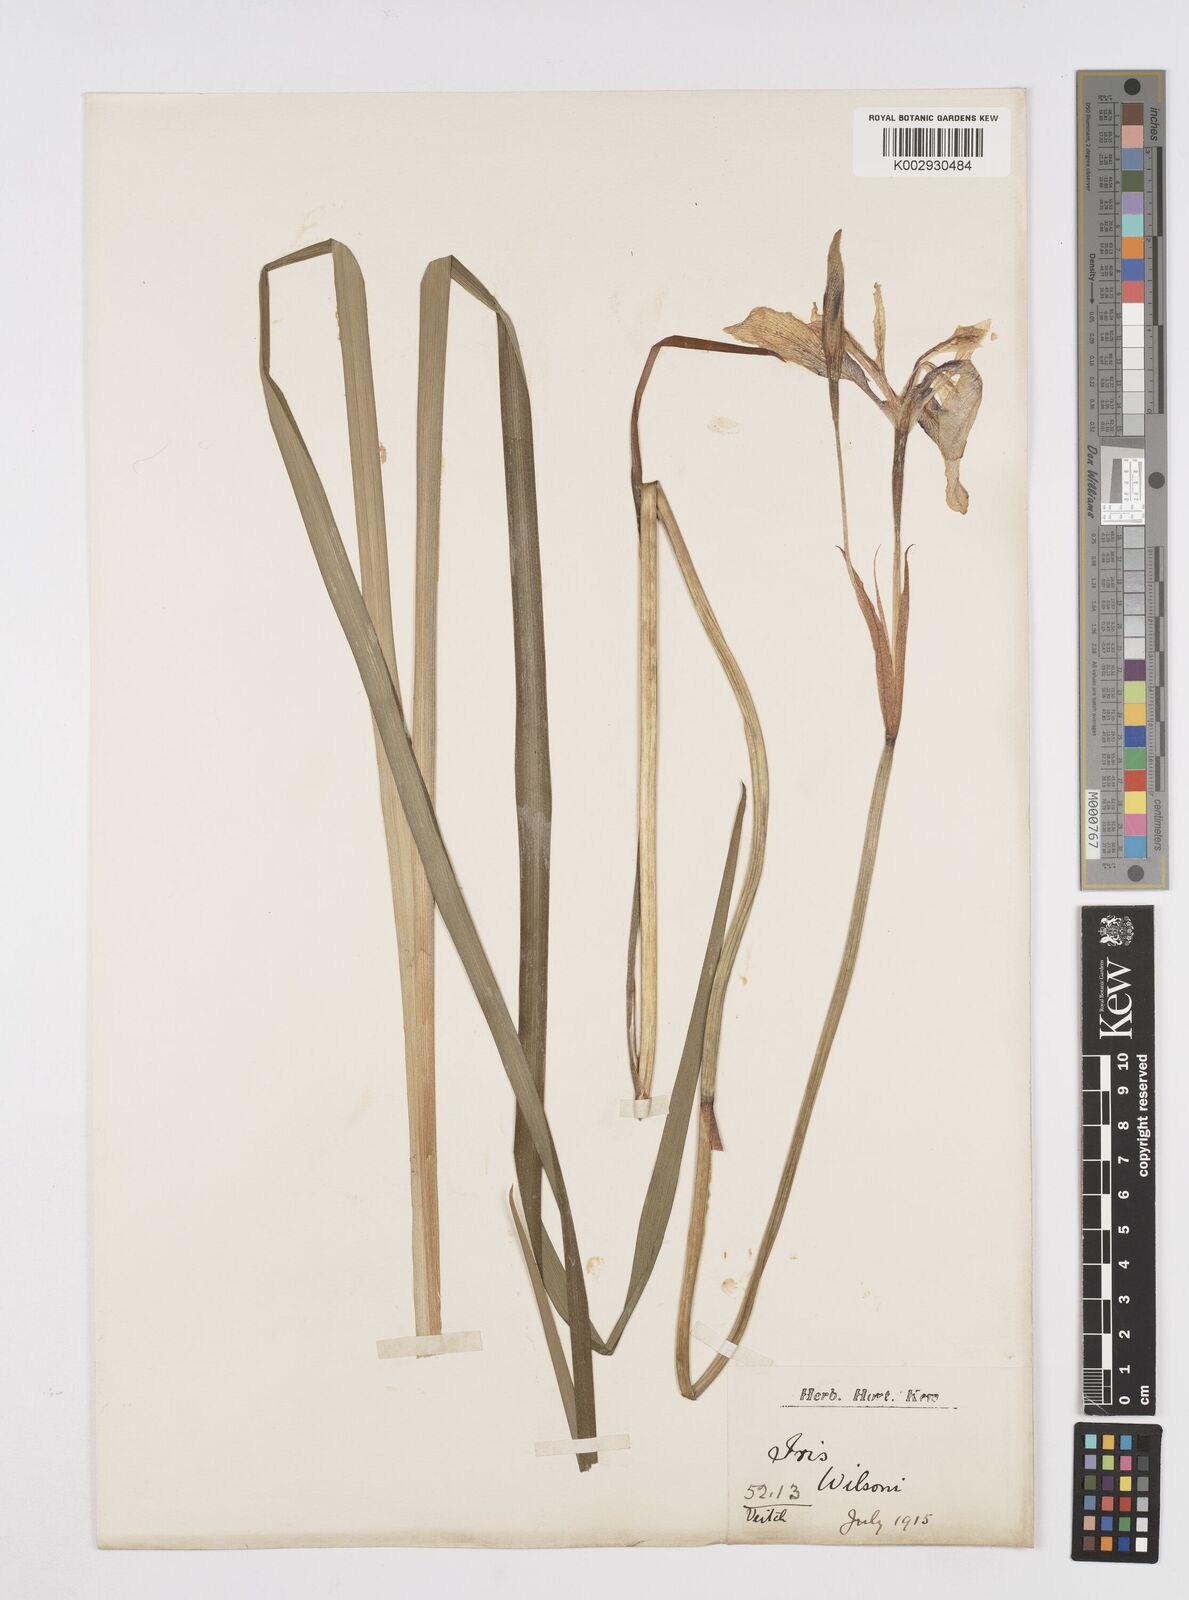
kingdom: Plantae
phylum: Tracheophyta
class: Liliopsida
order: Asparagales
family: Iridaceae
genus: Iris
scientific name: Iris wilsonii
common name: Yellow-flower iris
